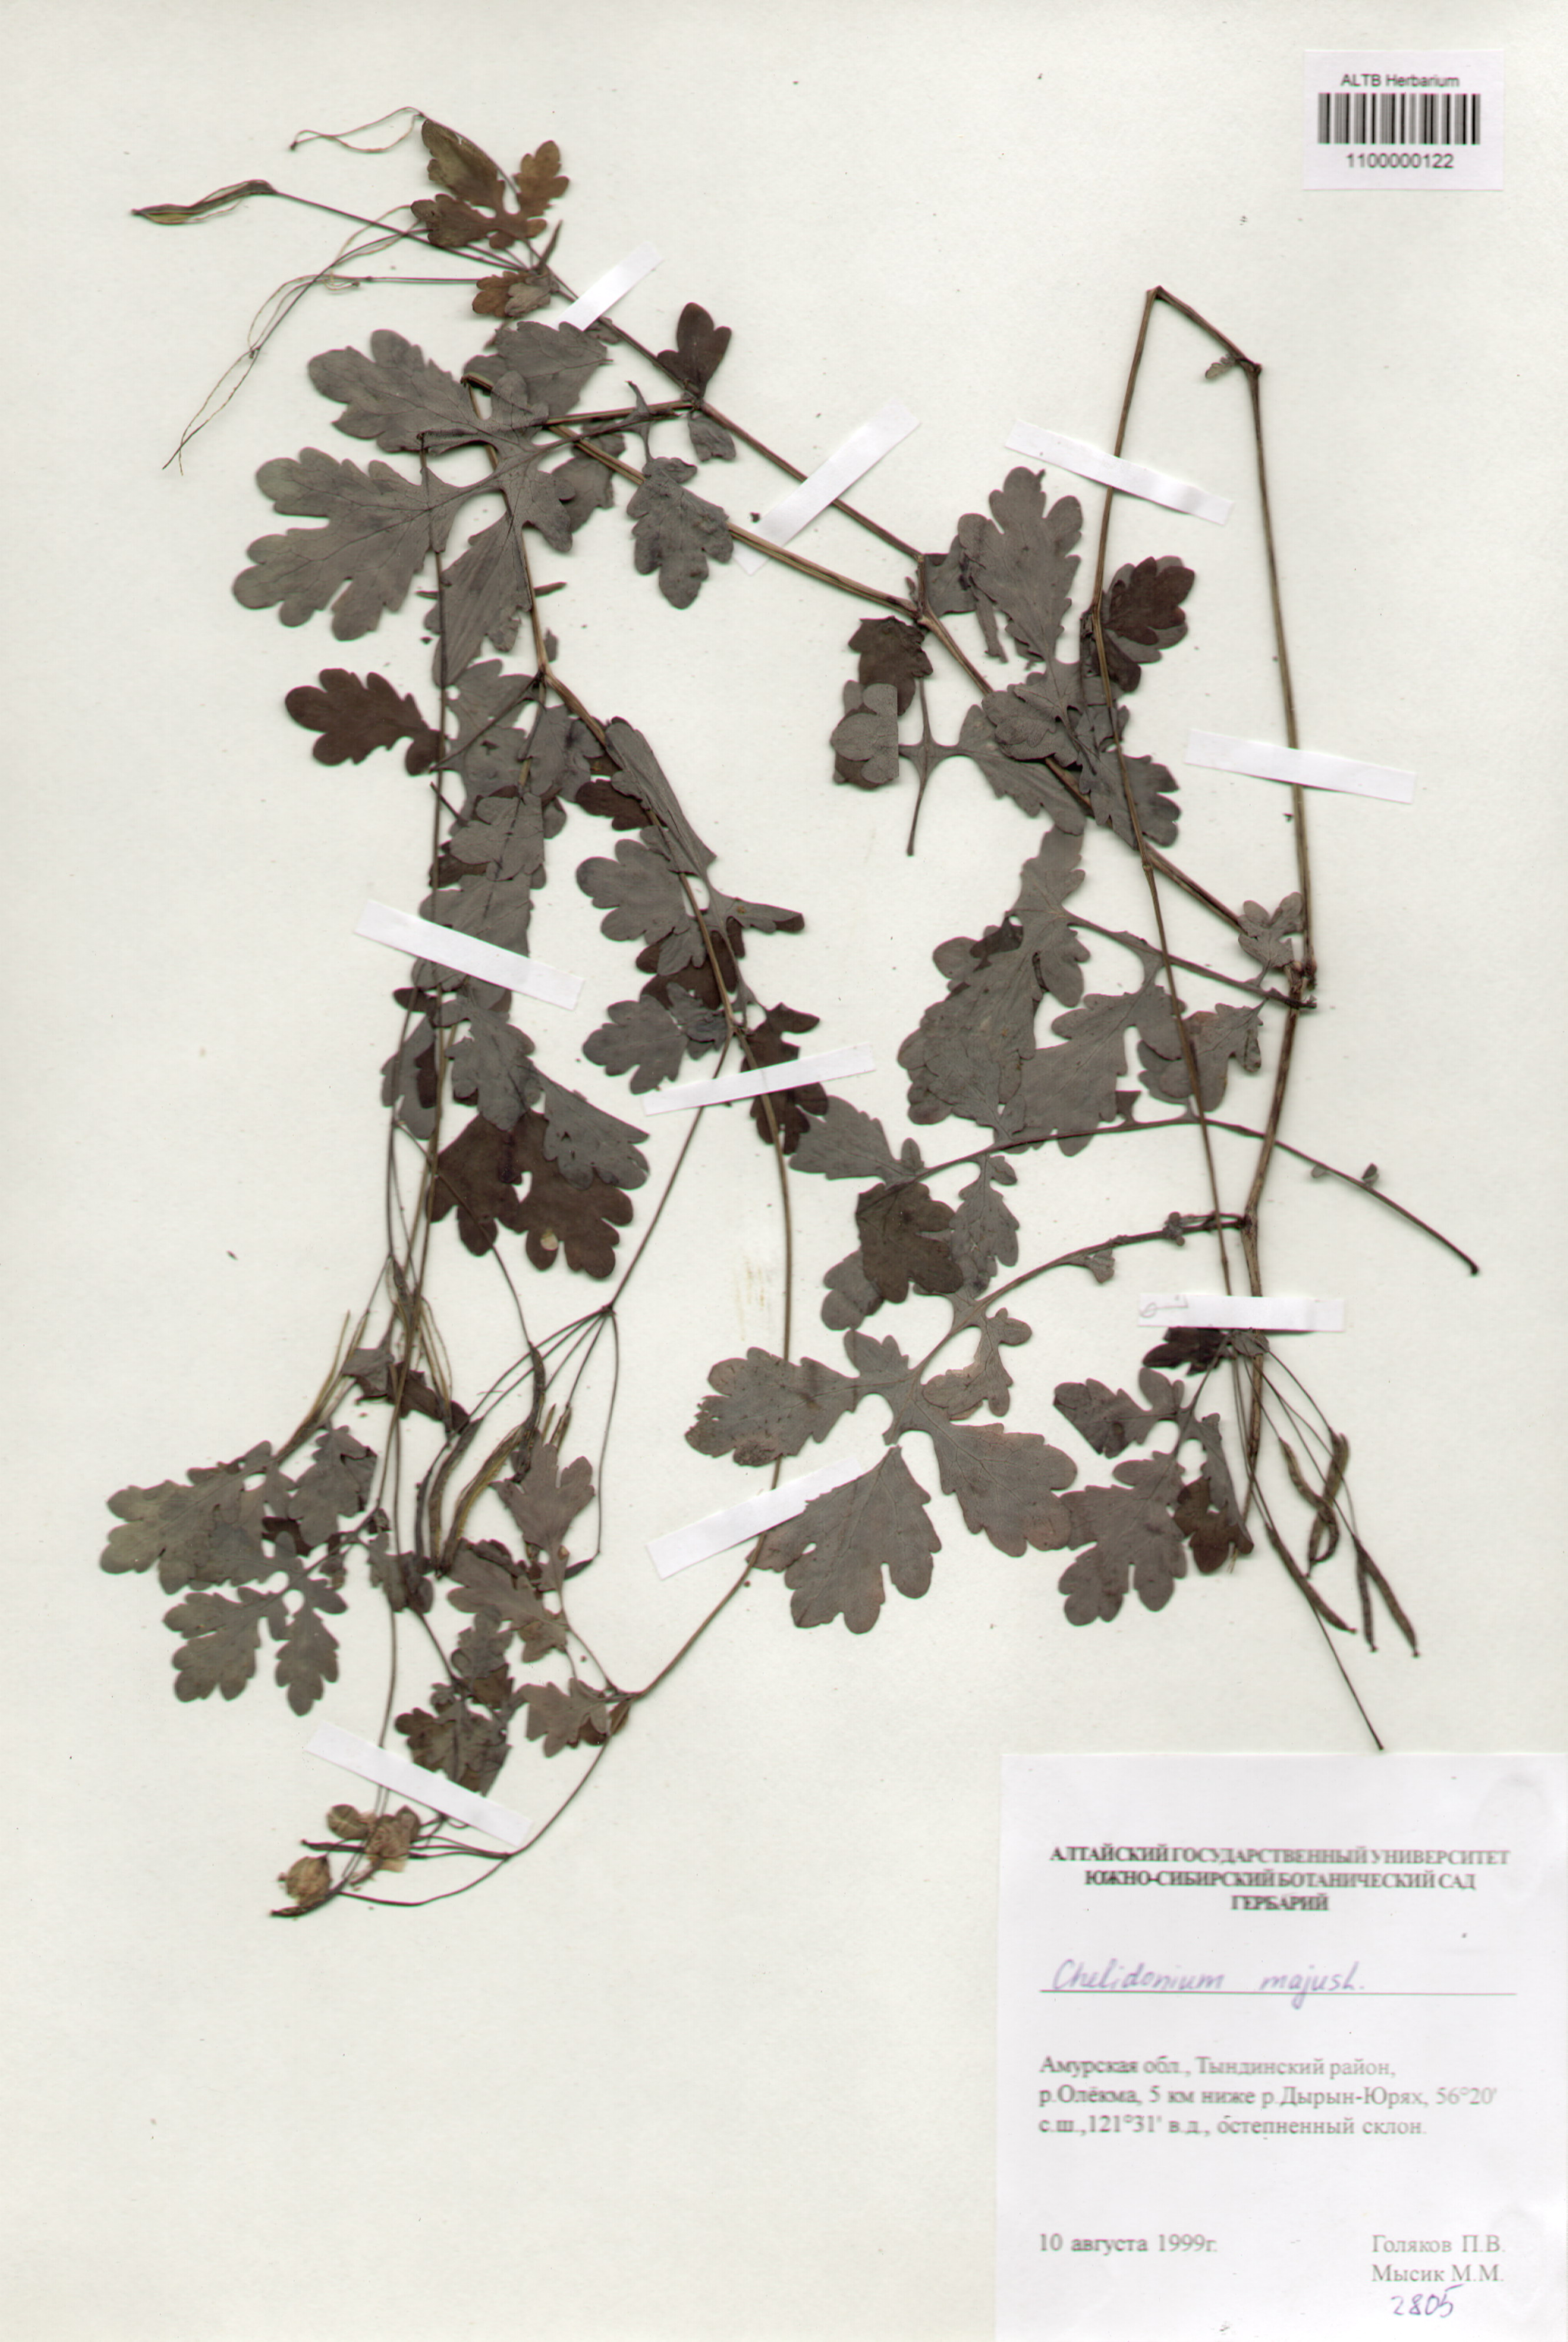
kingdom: Plantae
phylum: Tracheophyta
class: Magnoliopsida
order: Ranunculales
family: Papaveraceae
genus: Chelidonium
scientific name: Chelidonium majus
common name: Greater celandine
